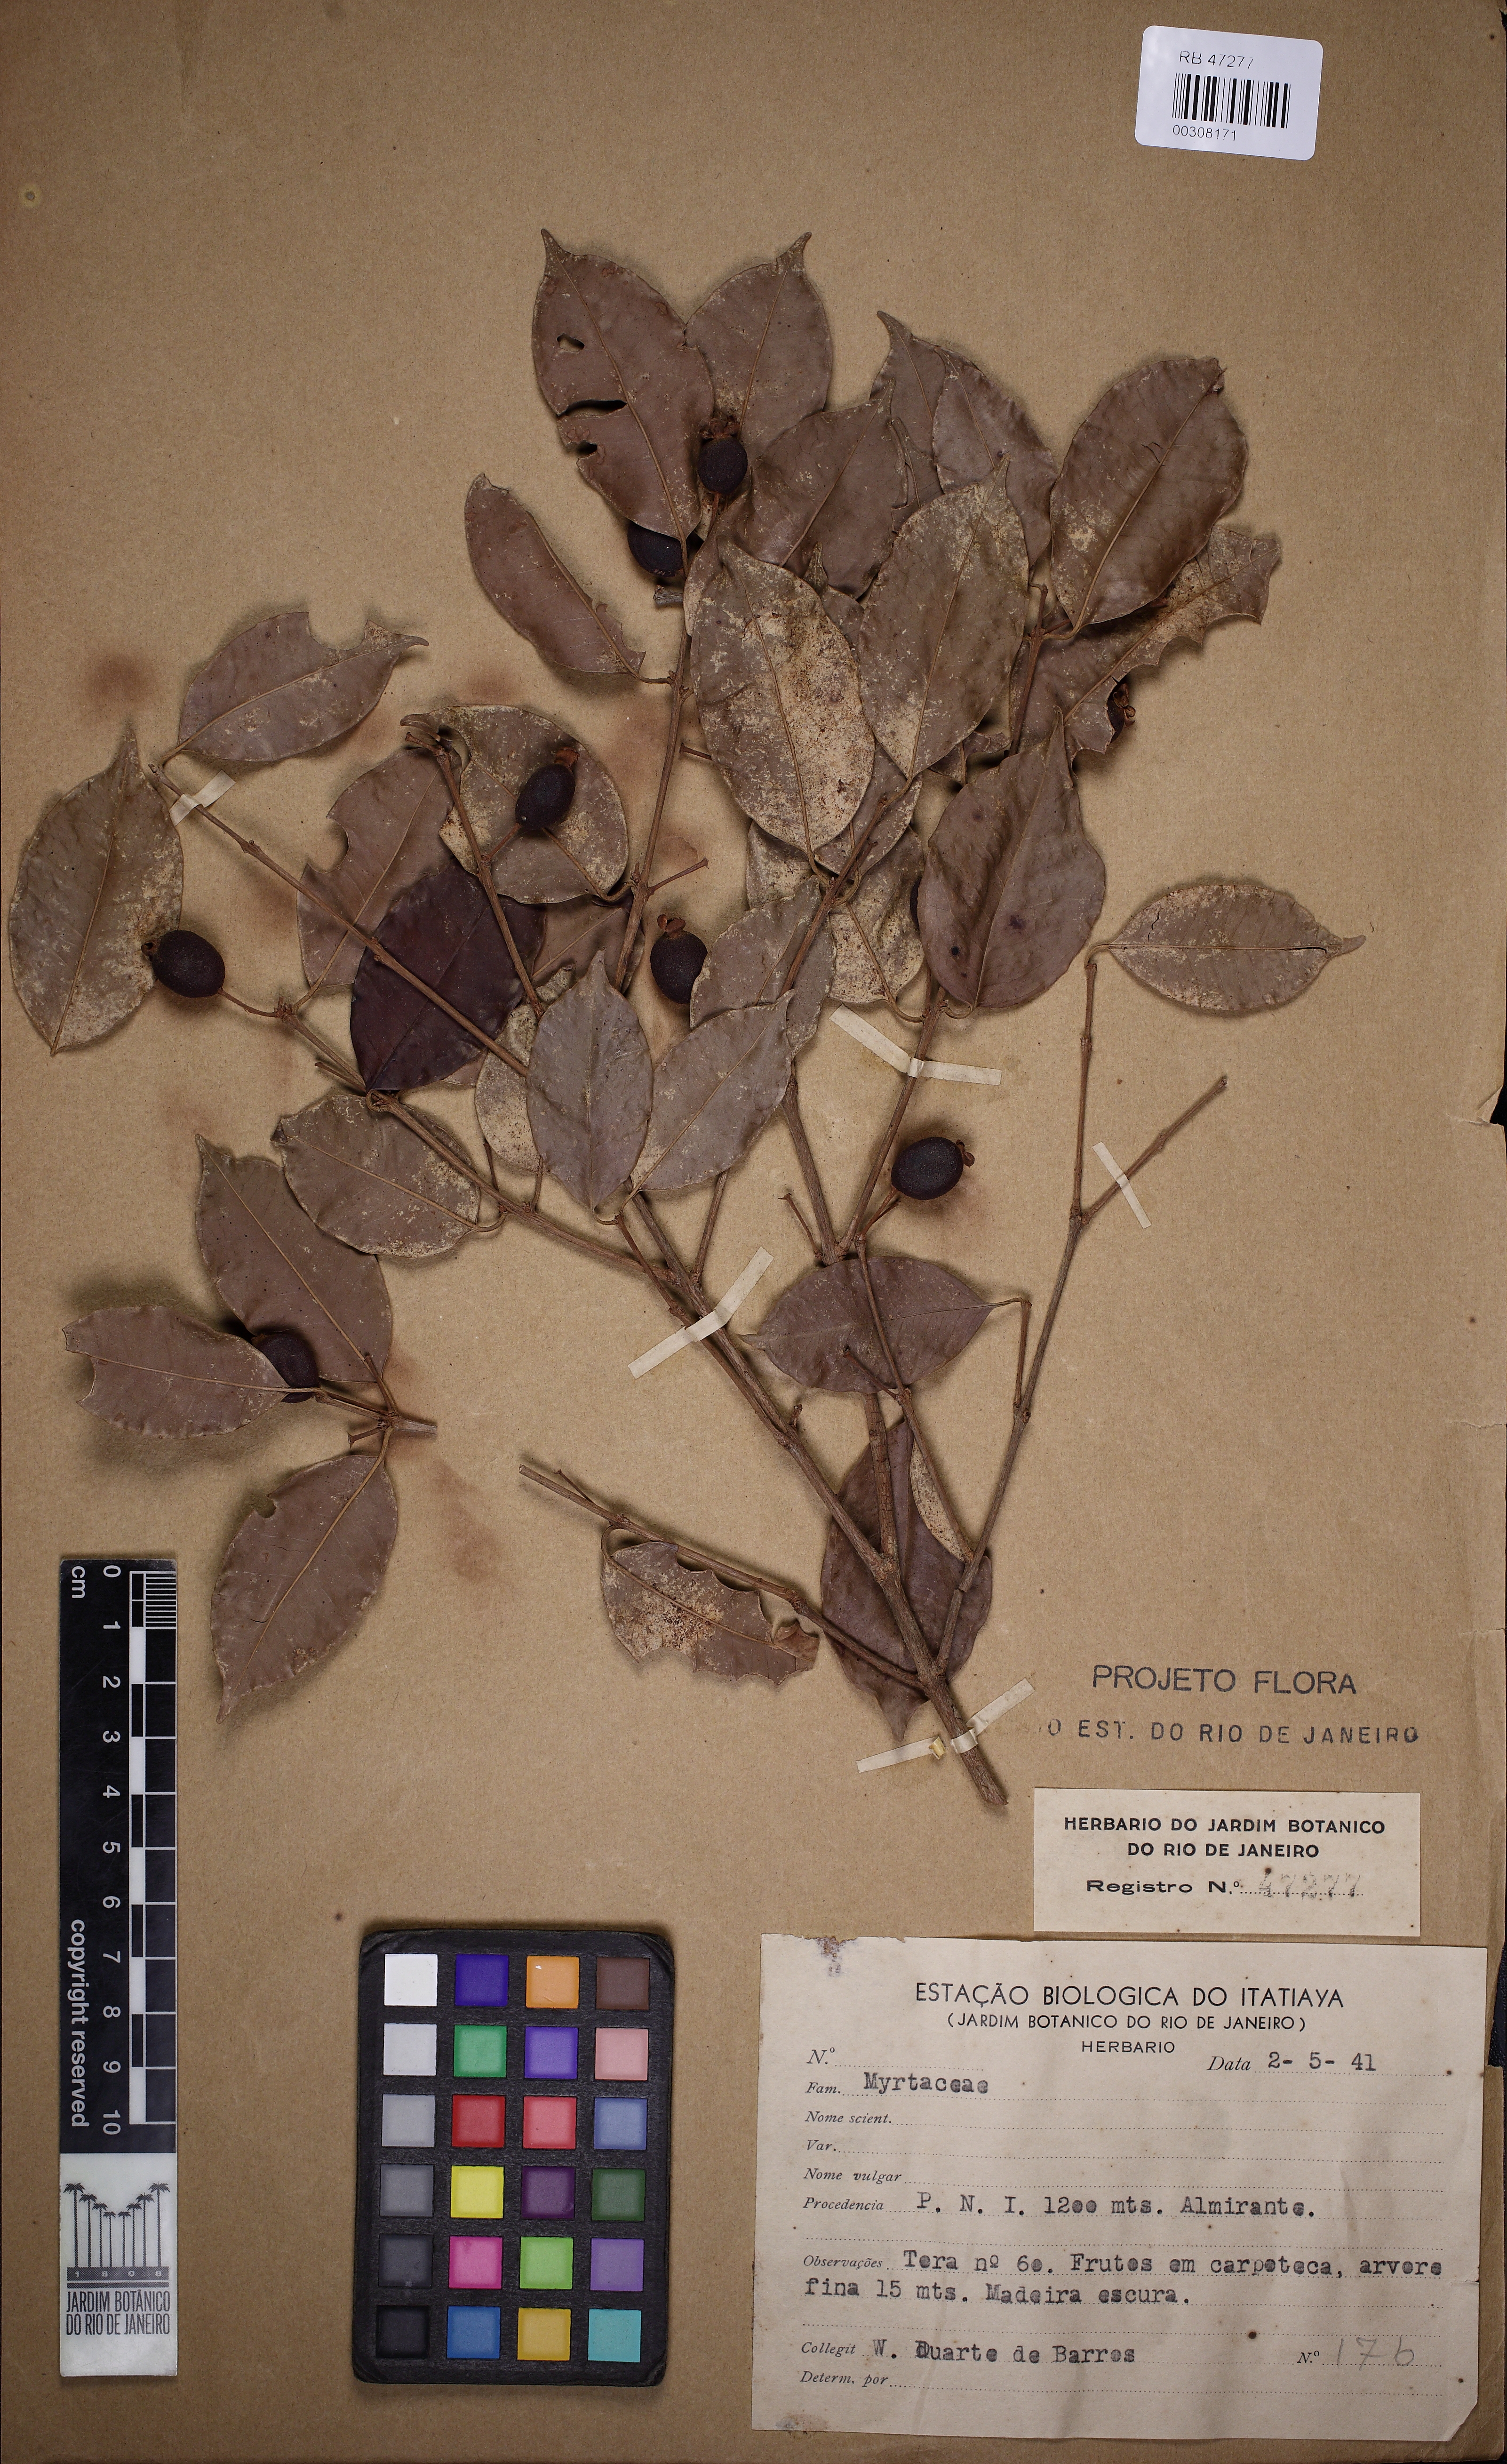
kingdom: Plantae
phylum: Tracheophyta
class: Magnoliopsida
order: Myrtales
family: Myrtaceae
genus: Eugenia
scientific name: Eugenia prasina
